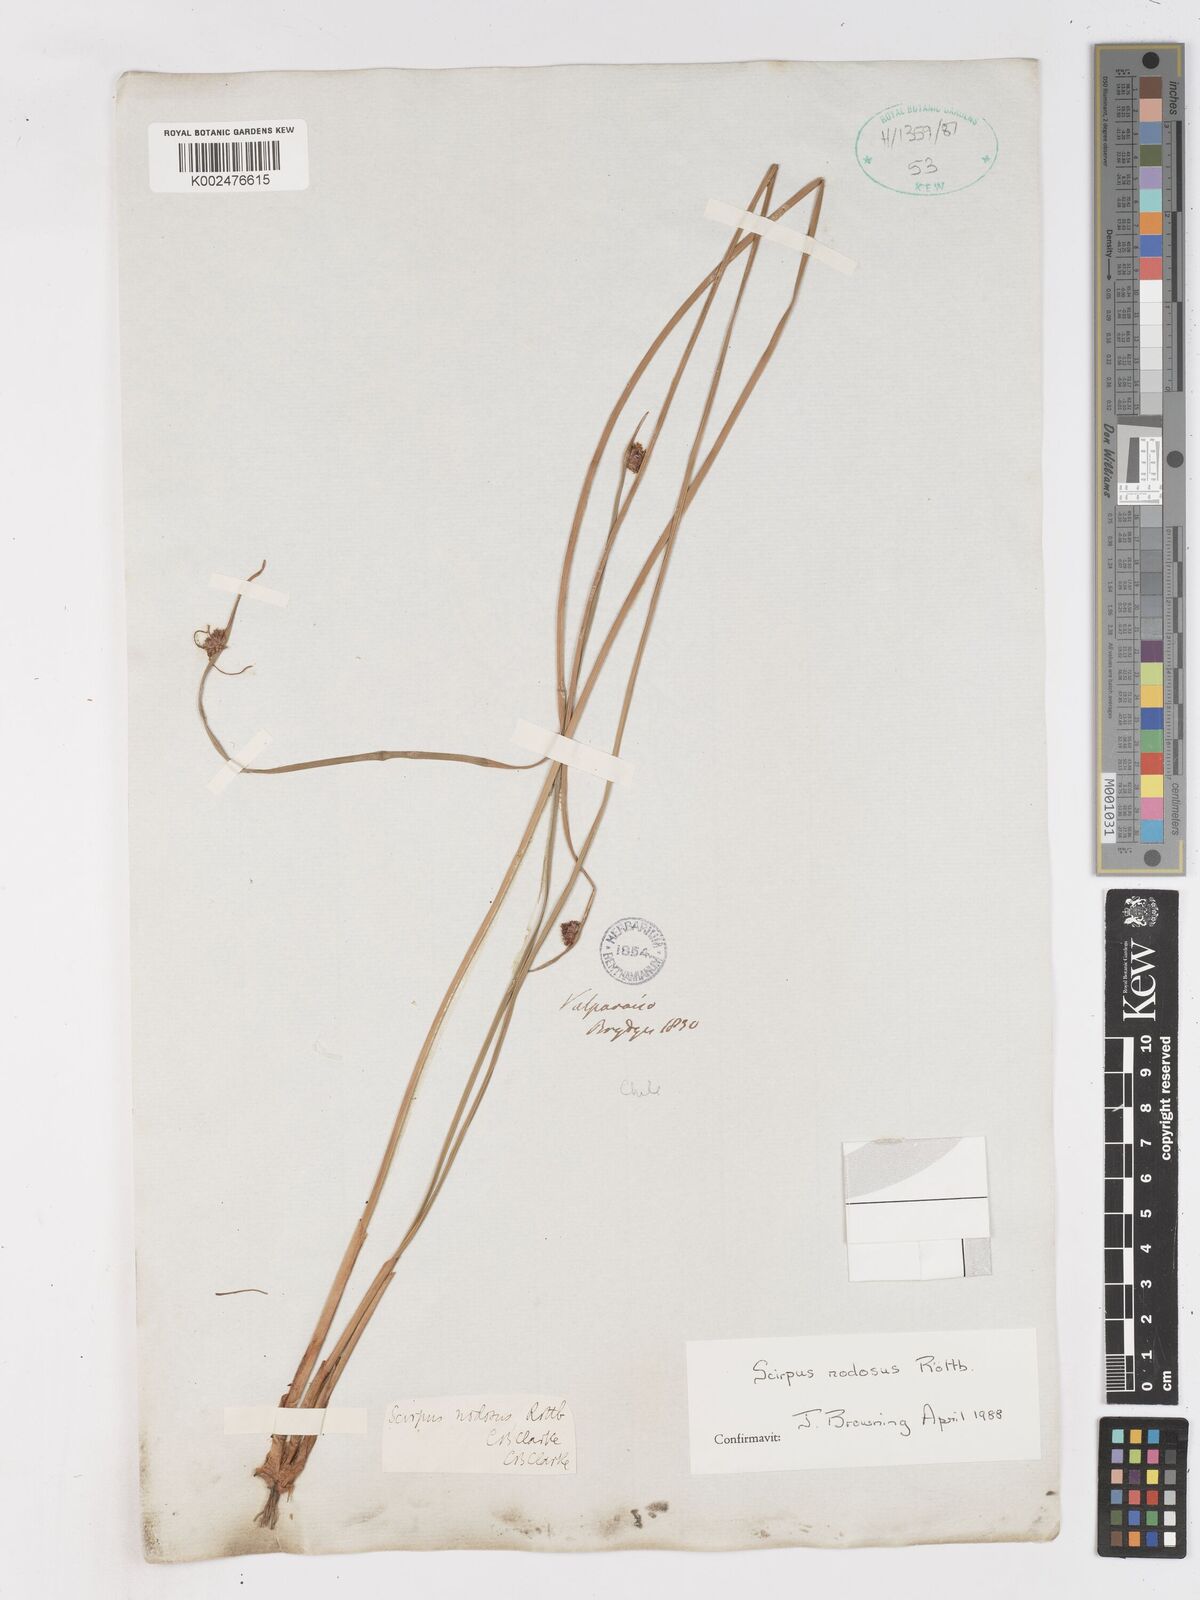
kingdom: Plantae
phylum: Tracheophyta
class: Liliopsida
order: Poales
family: Cyperaceae
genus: Ficinia
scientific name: Ficinia nodosa
